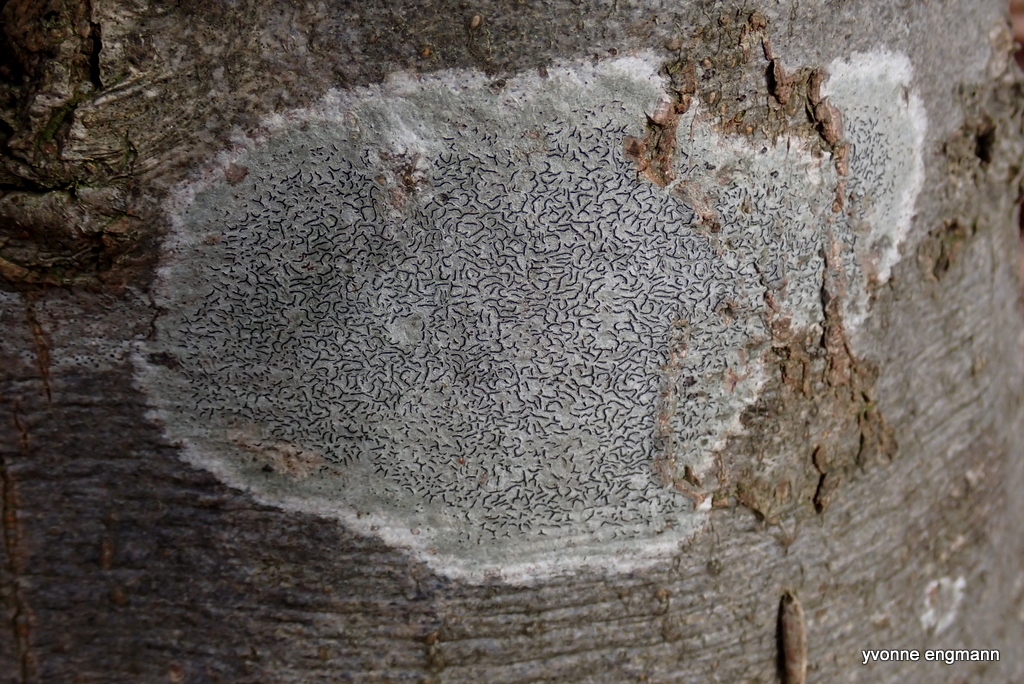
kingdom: Fungi
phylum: Ascomycota
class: Lecanoromycetes
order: Ostropales
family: Graphidaceae
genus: Graphis
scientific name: Graphis scripta
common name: almindelig skriftlav
